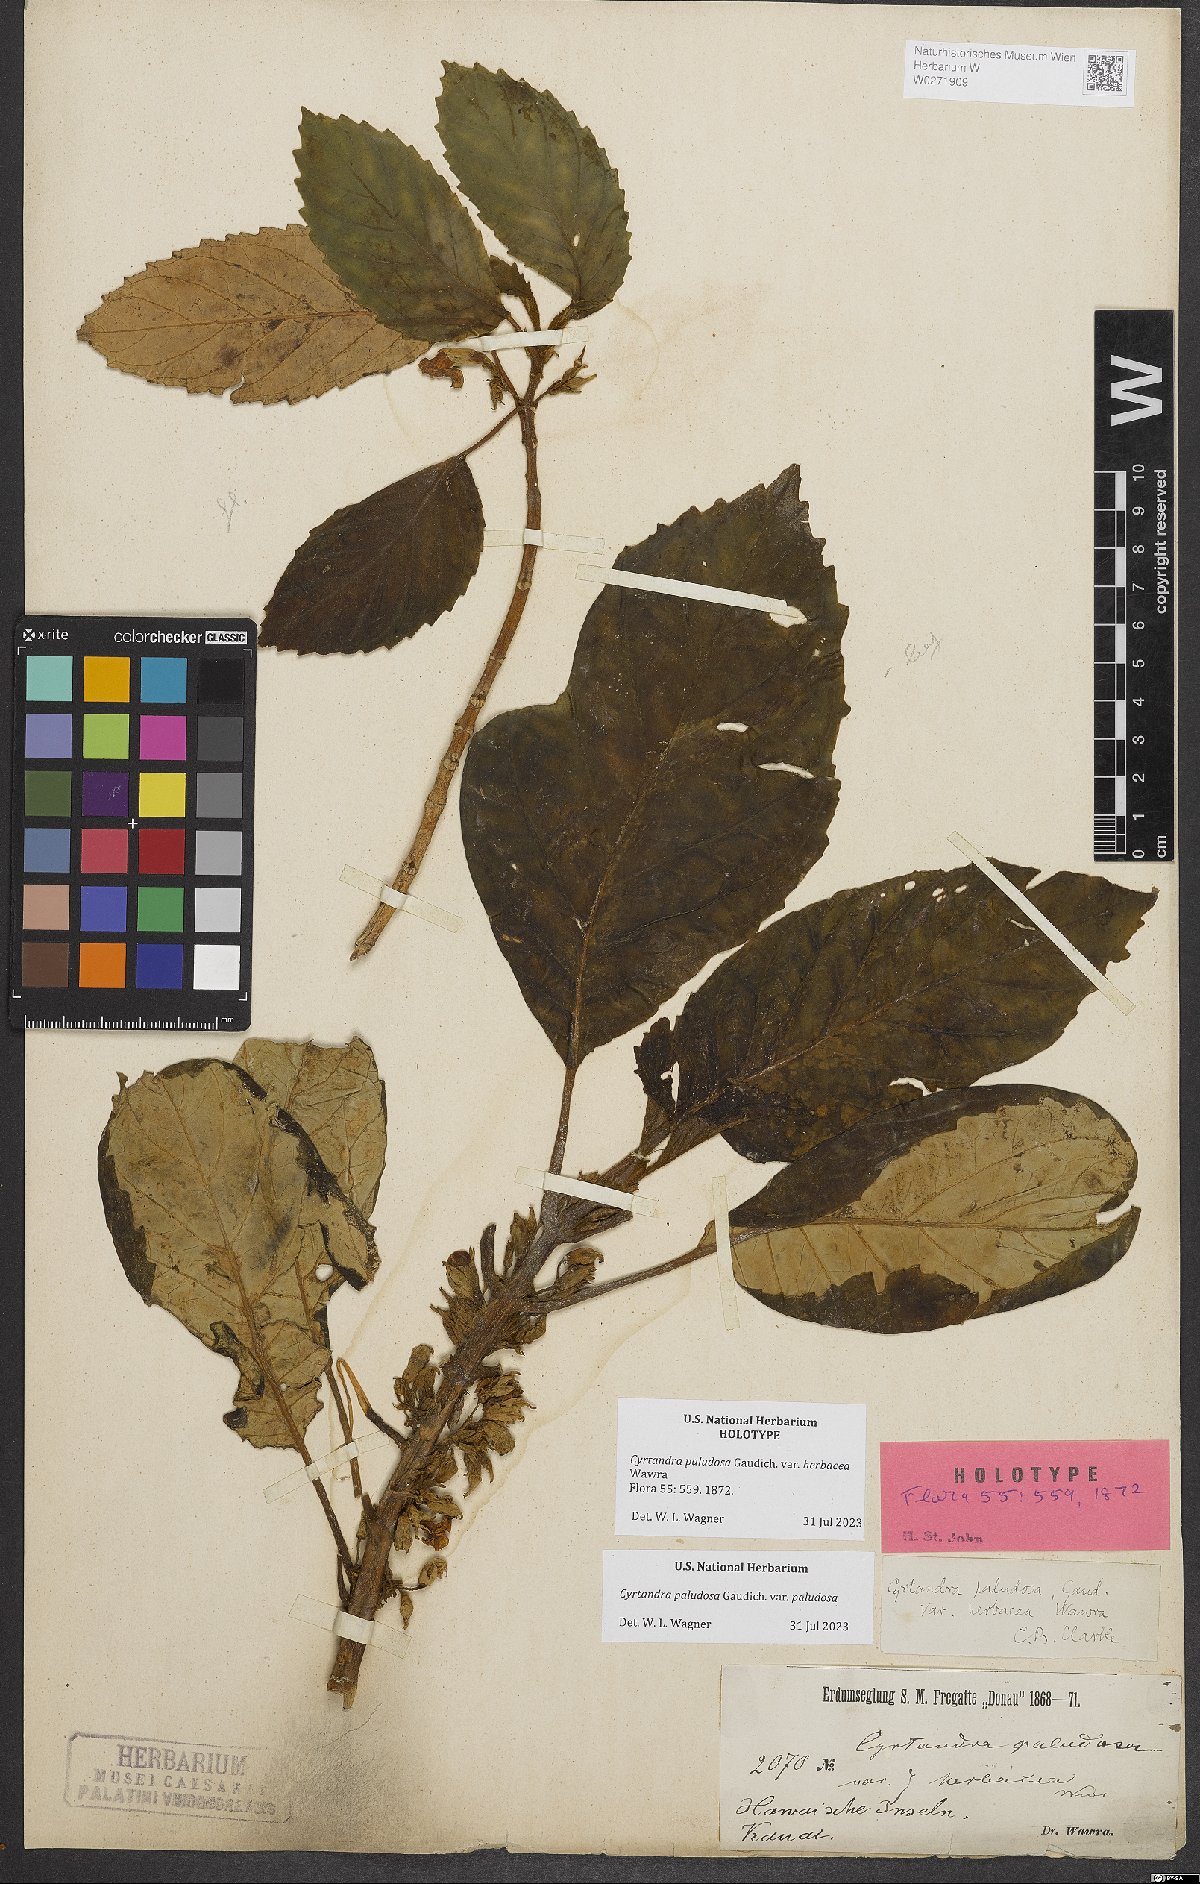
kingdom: Plantae
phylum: Tracheophyta
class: Magnoliopsida
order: Lamiales
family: Gesneriaceae
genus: Cyrtandra
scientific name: Cyrtandra paludosa
